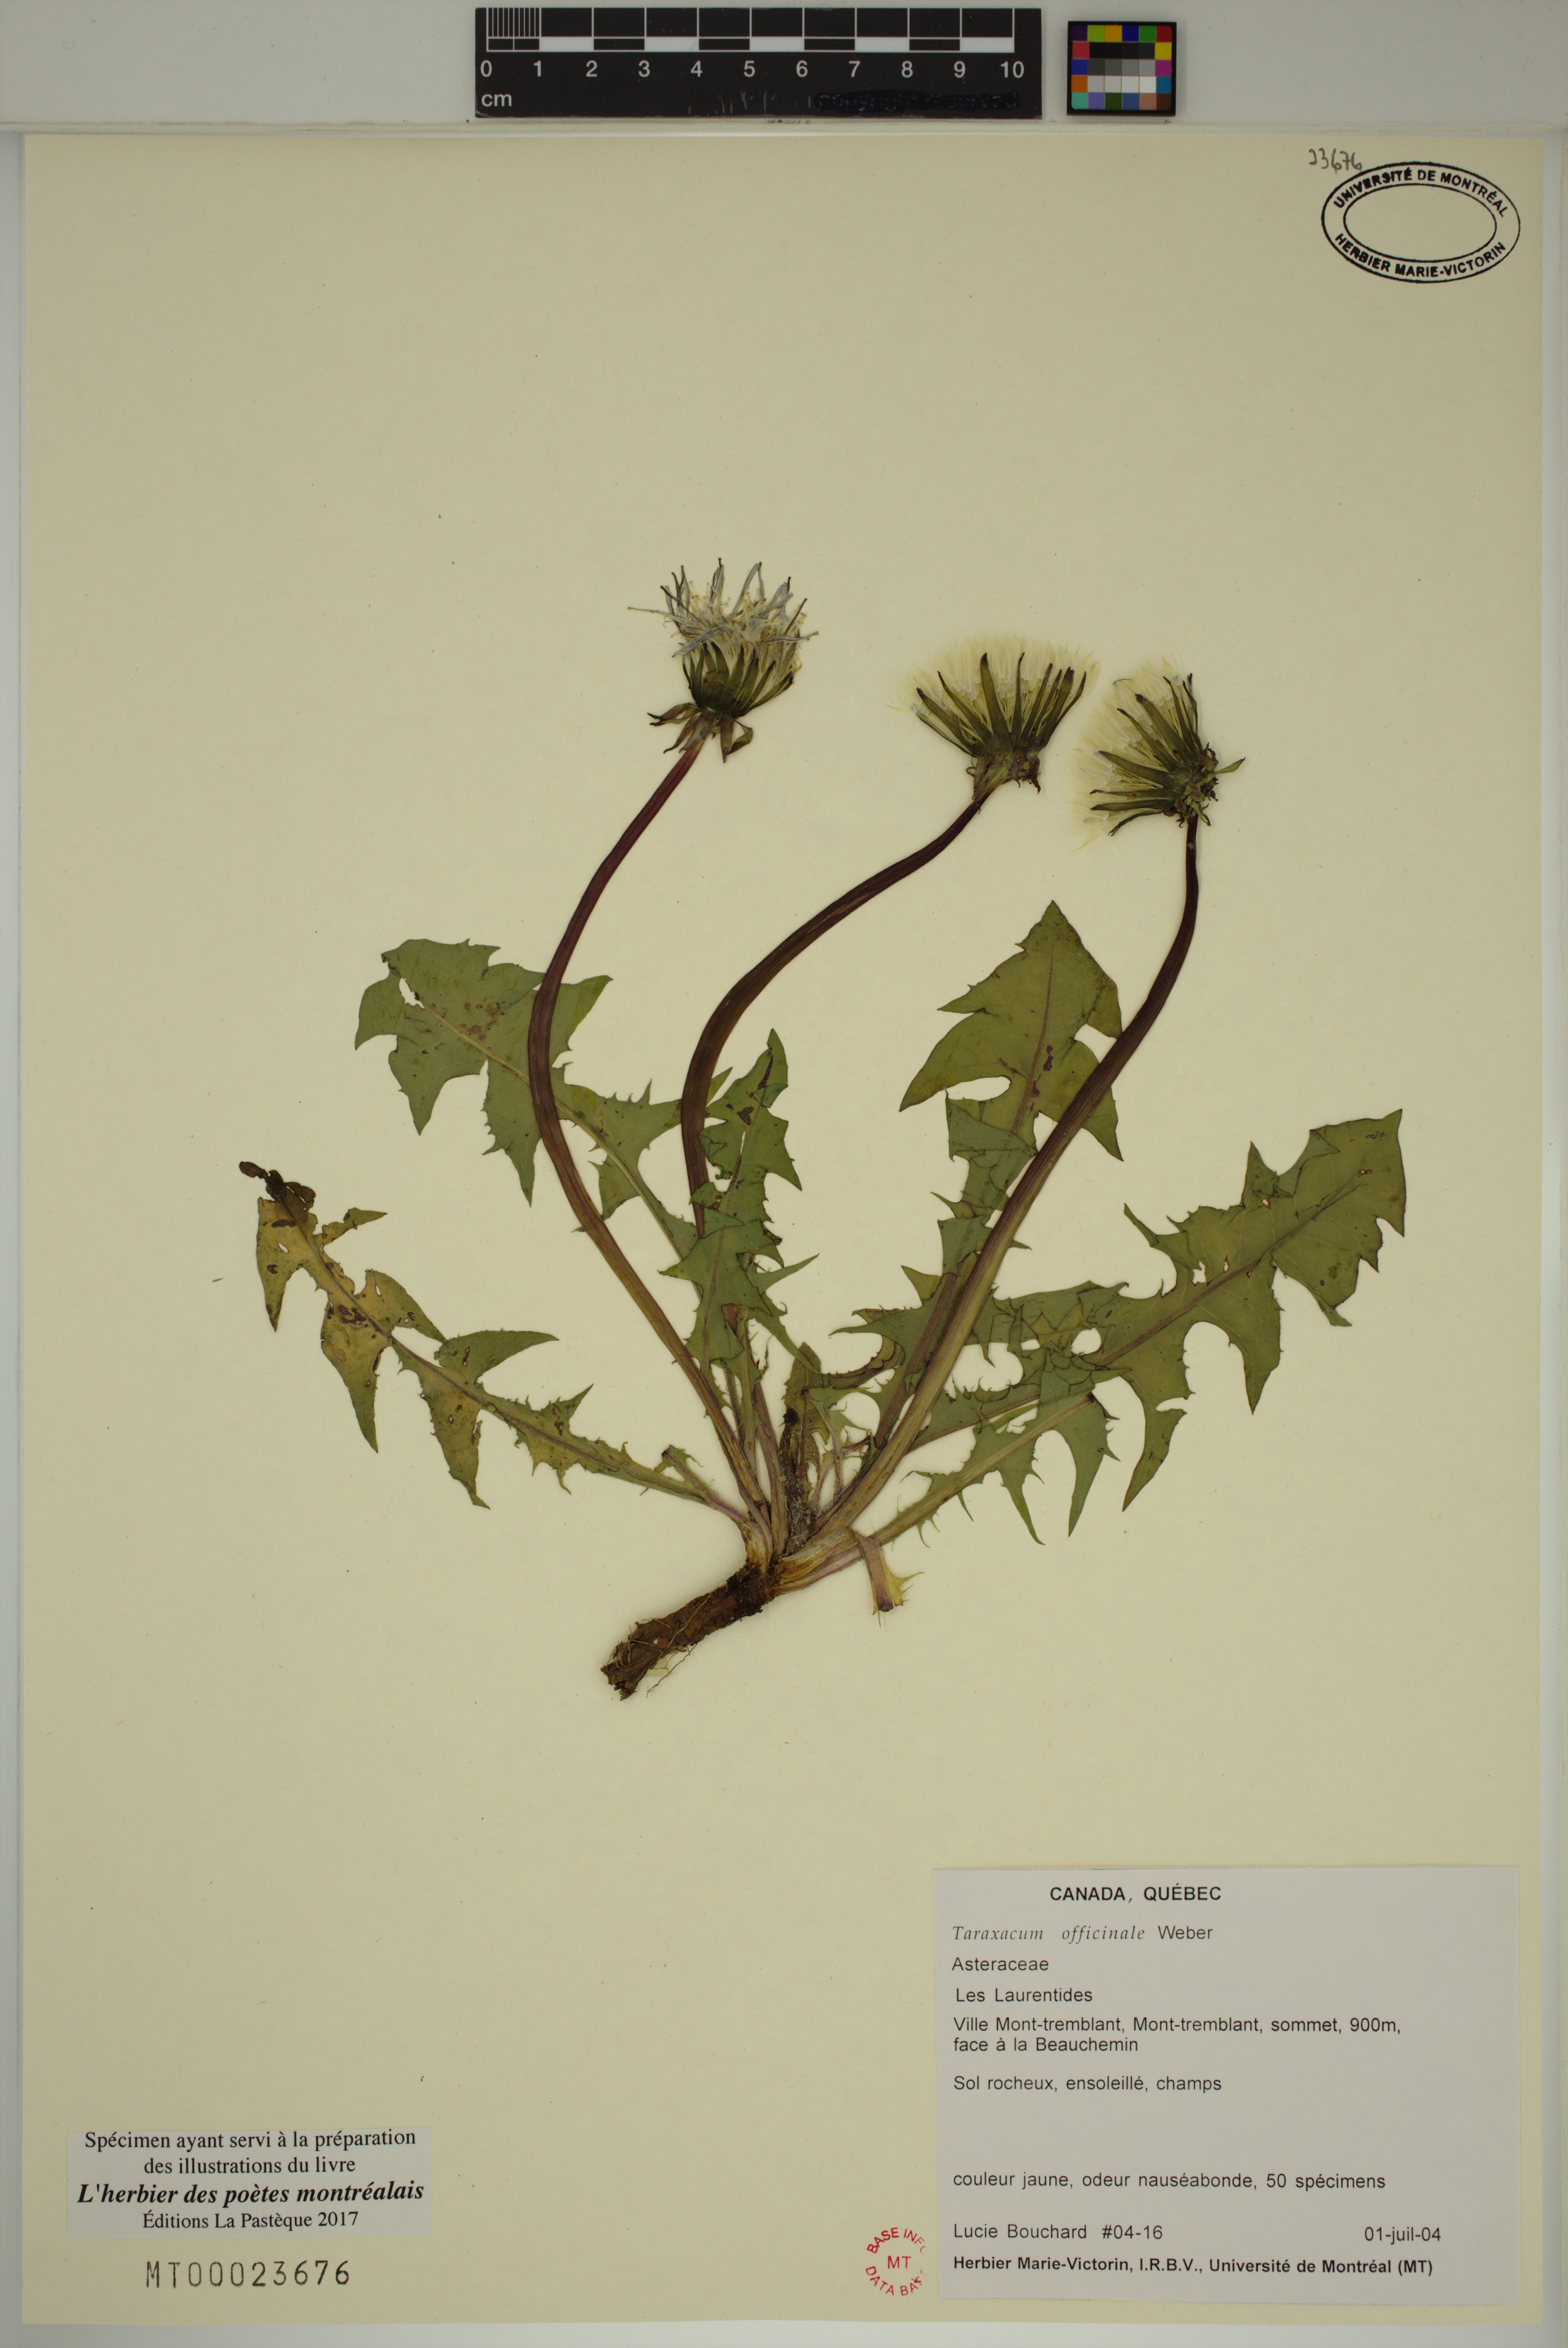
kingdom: Plantae
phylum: Tracheophyta
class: Magnoliopsida
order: Asterales
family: Asteraceae
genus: Taraxacum
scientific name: Taraxacum officinale
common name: Common dandelion
